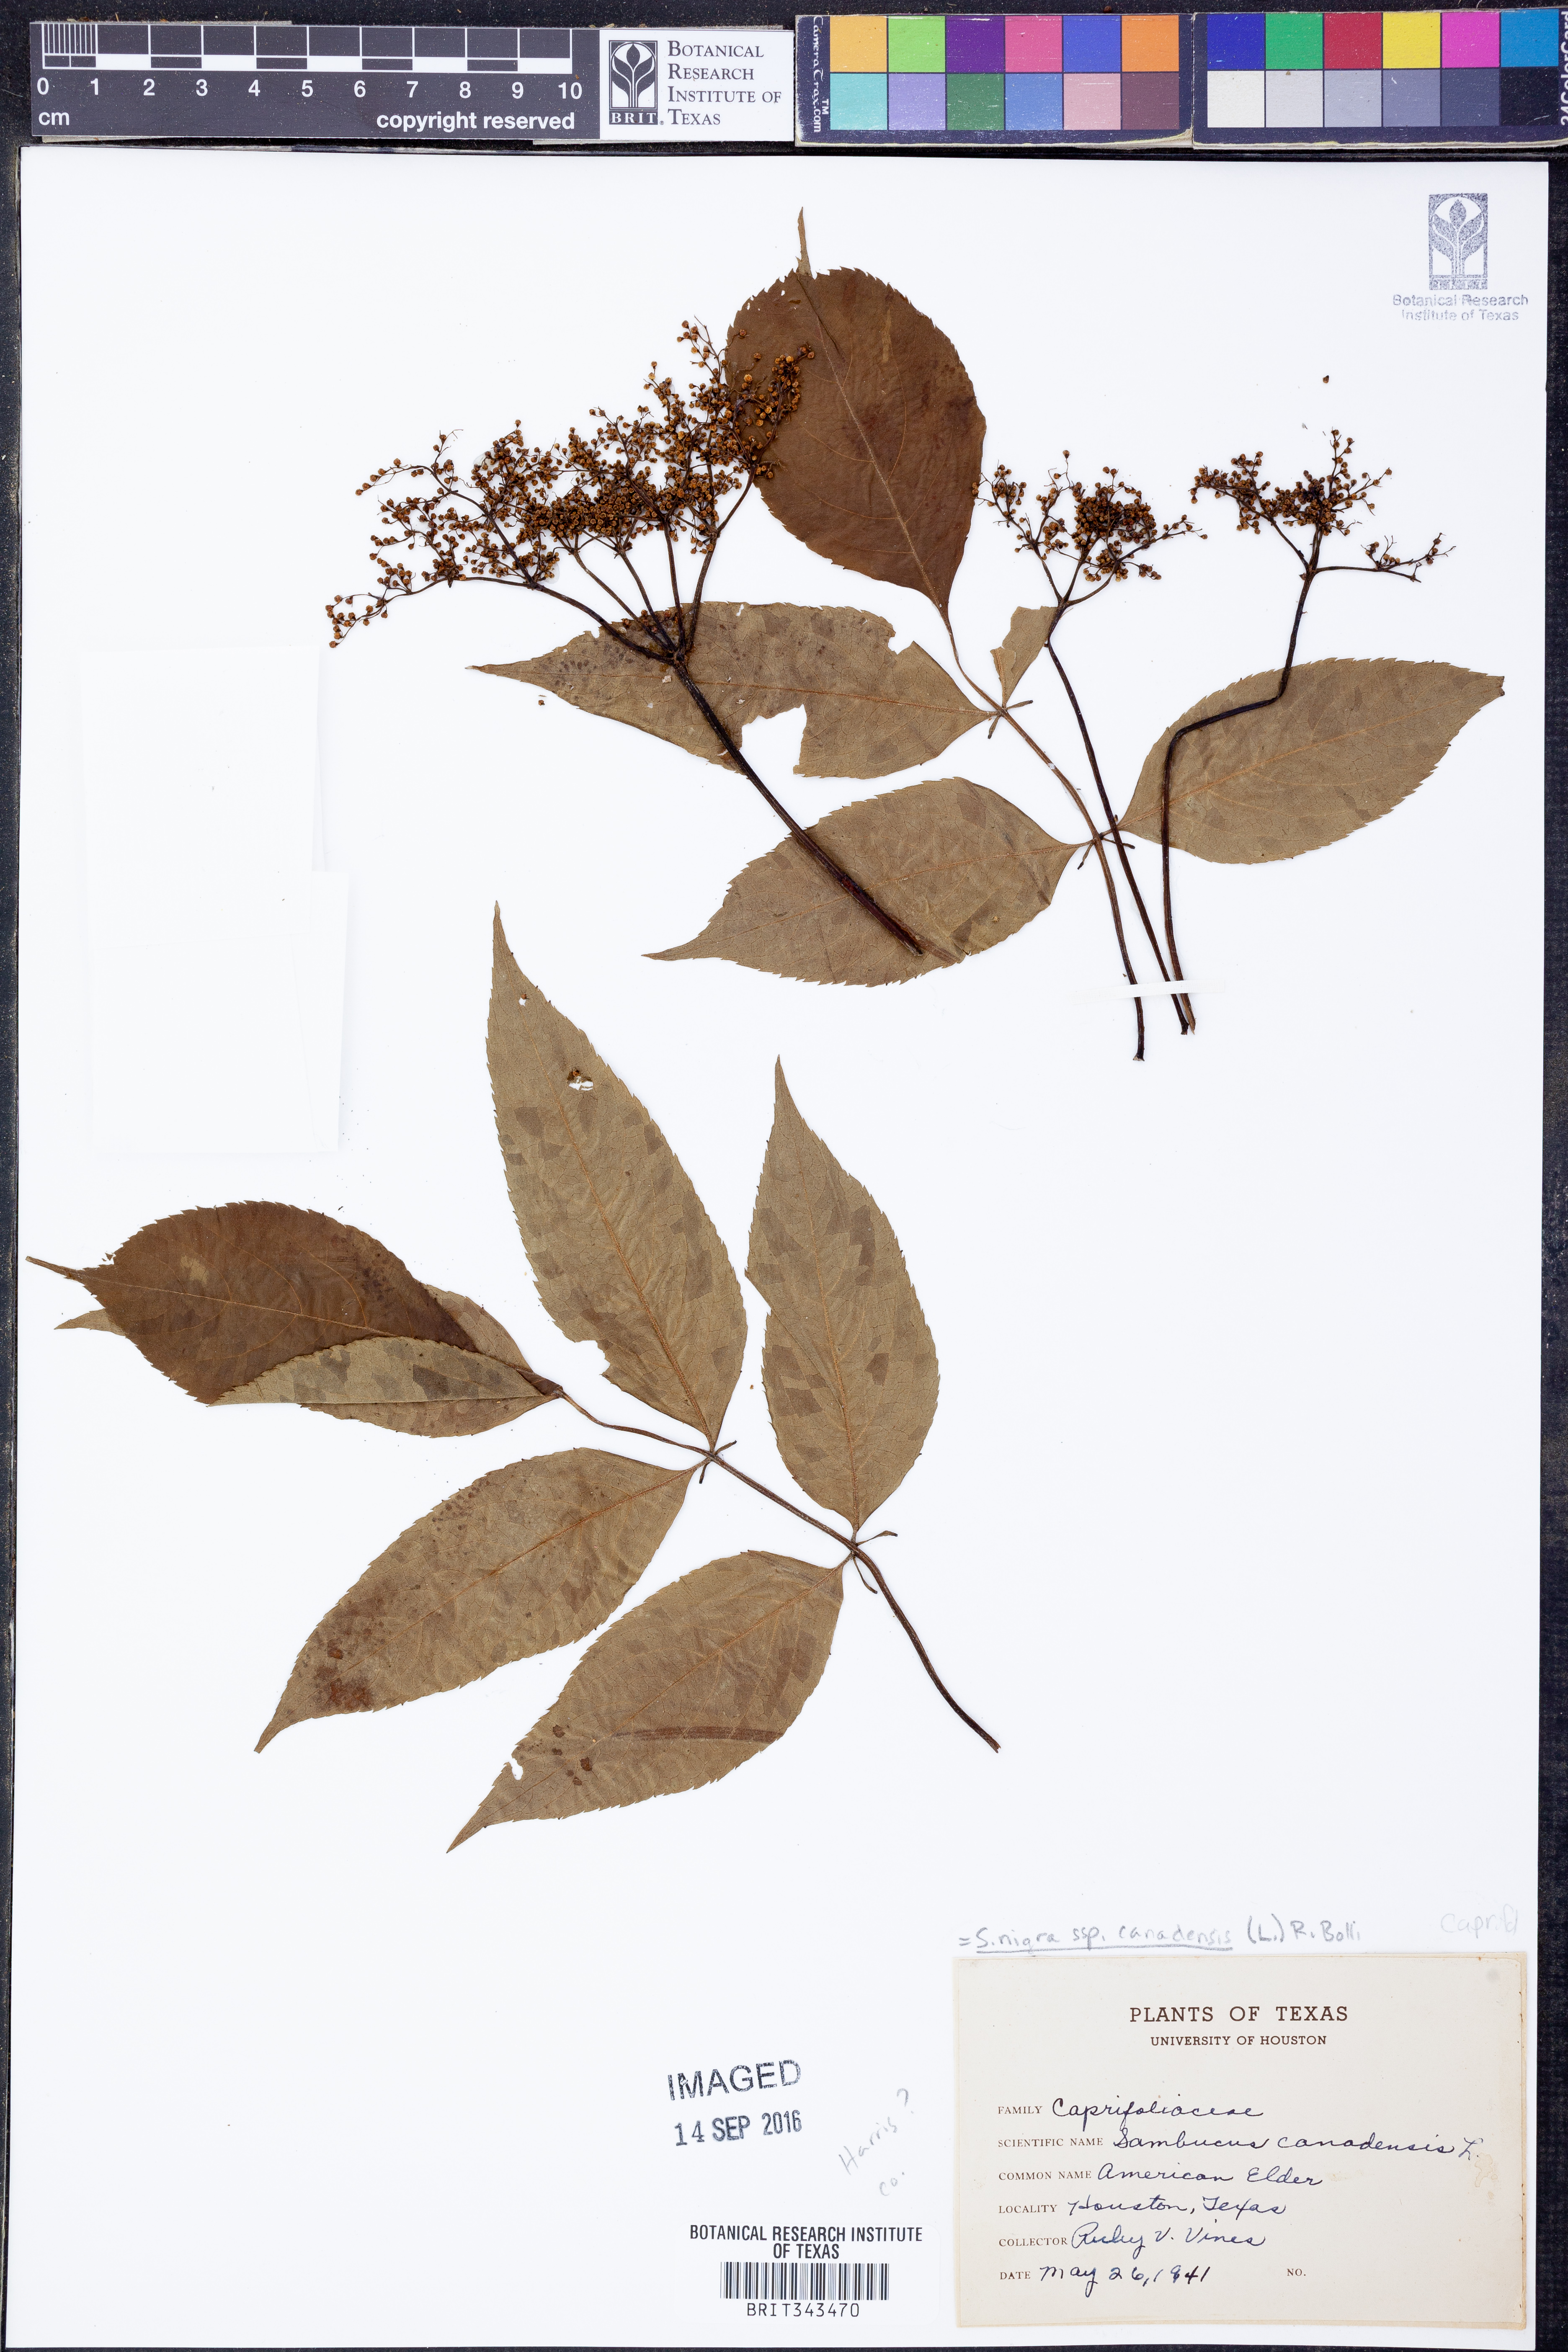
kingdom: Plantae
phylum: Tracheophyta
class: Magnoliopsida
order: Dipsacales
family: Viburnaceae
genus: Sambucus
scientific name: Sambucus canadensis
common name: American elder
